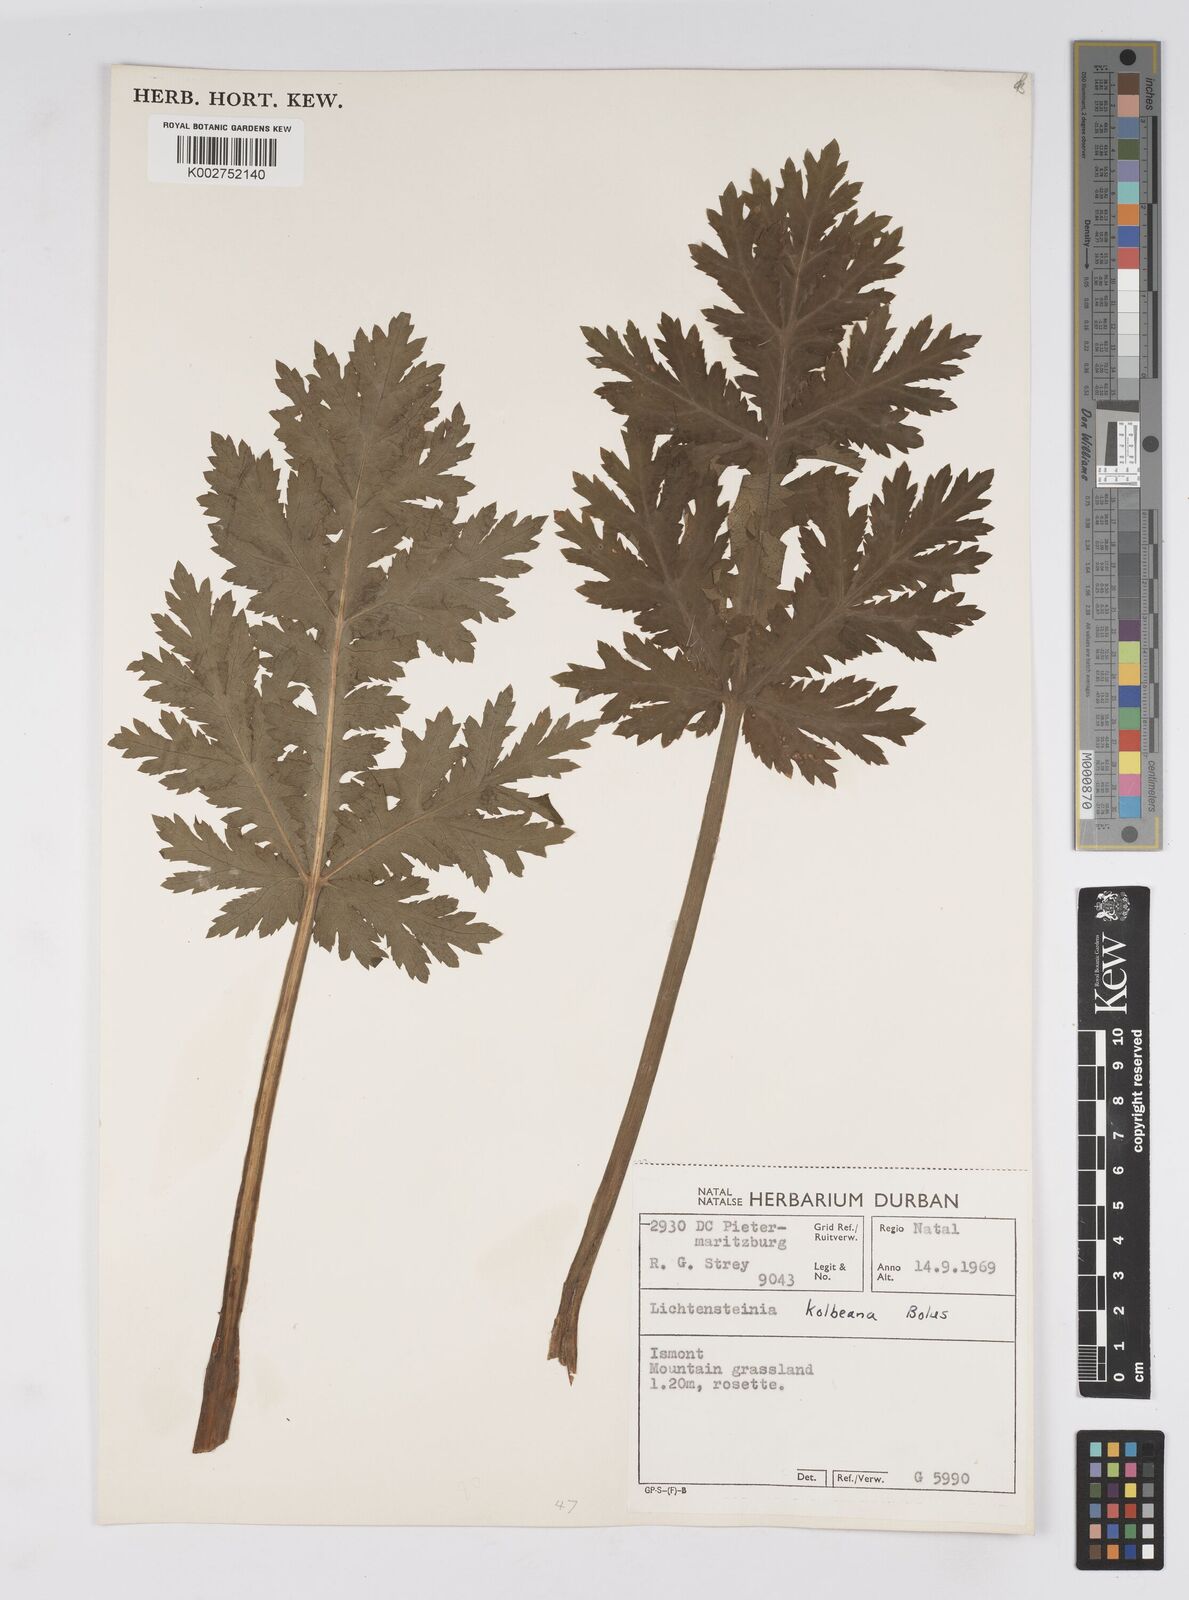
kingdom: Plantae
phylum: Tracheophyta
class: Magnoliopsida
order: Apiales
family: Apiaceae
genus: Lichtensteinia
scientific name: Lichtensteinia interrupta
